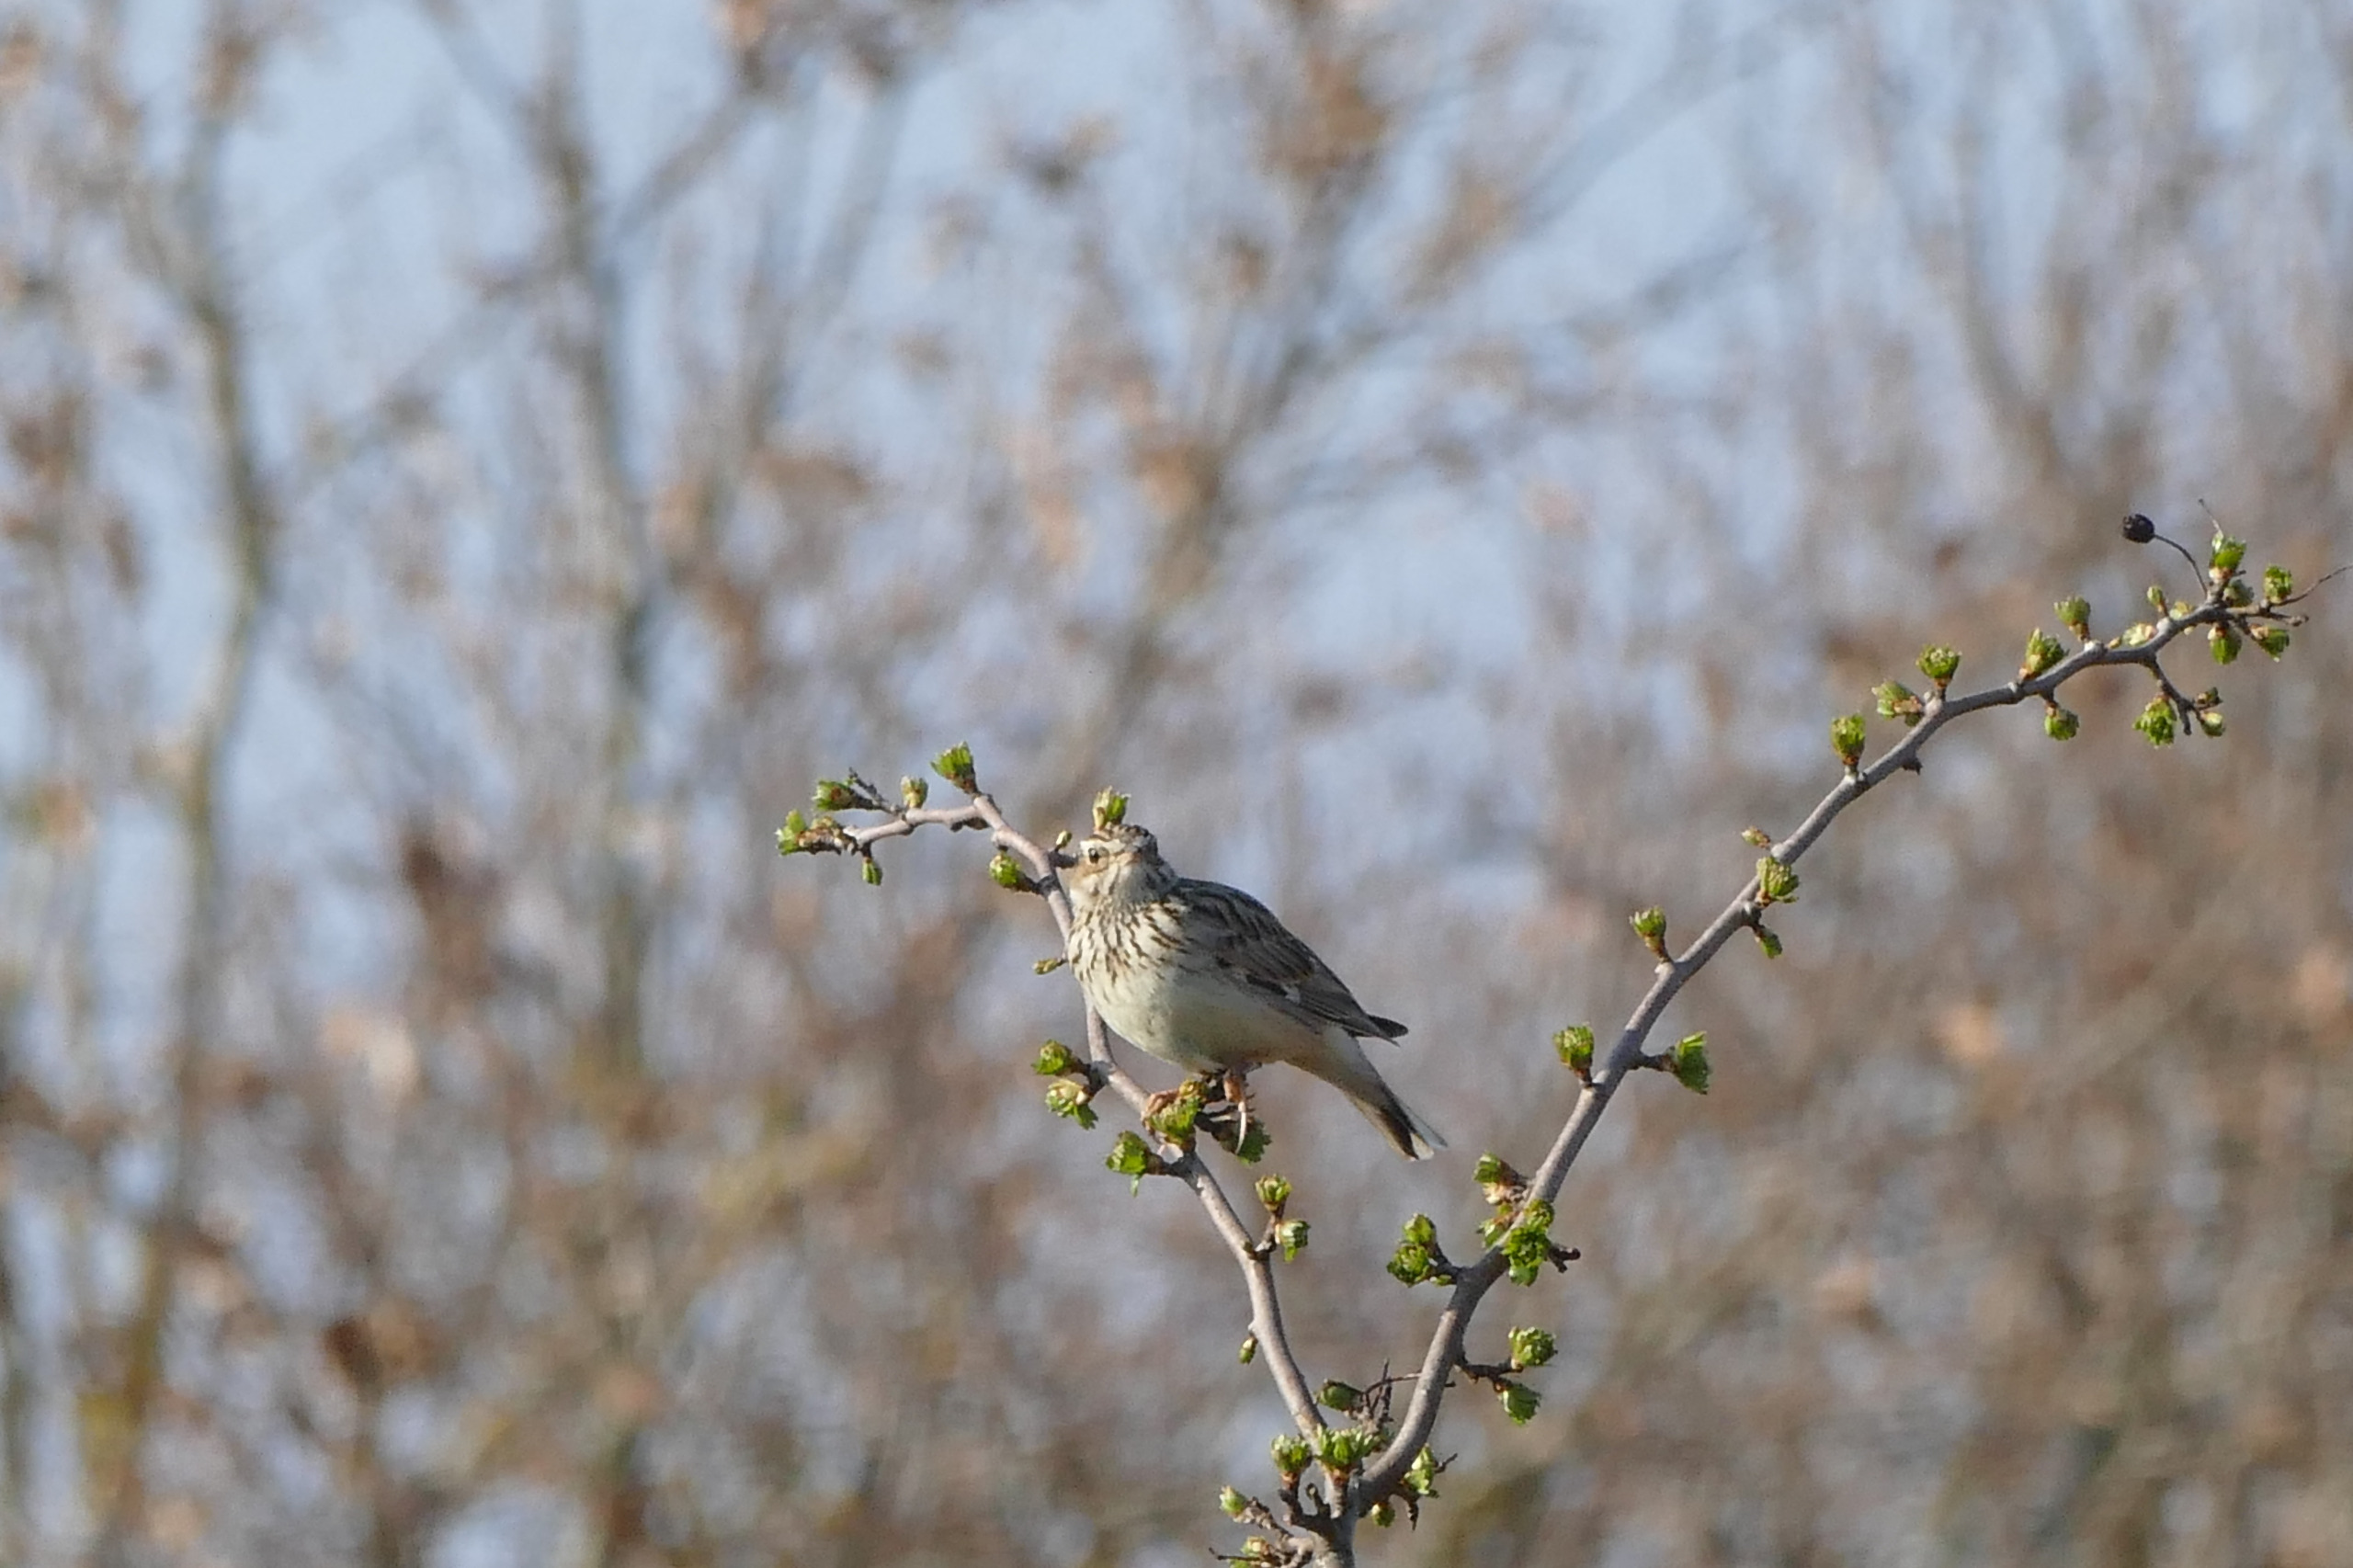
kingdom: Animalia
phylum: Chordata
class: Aves
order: Passeriformes
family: Alaudidae
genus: Lullula
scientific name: Lullula arborea
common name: Hedelærke
